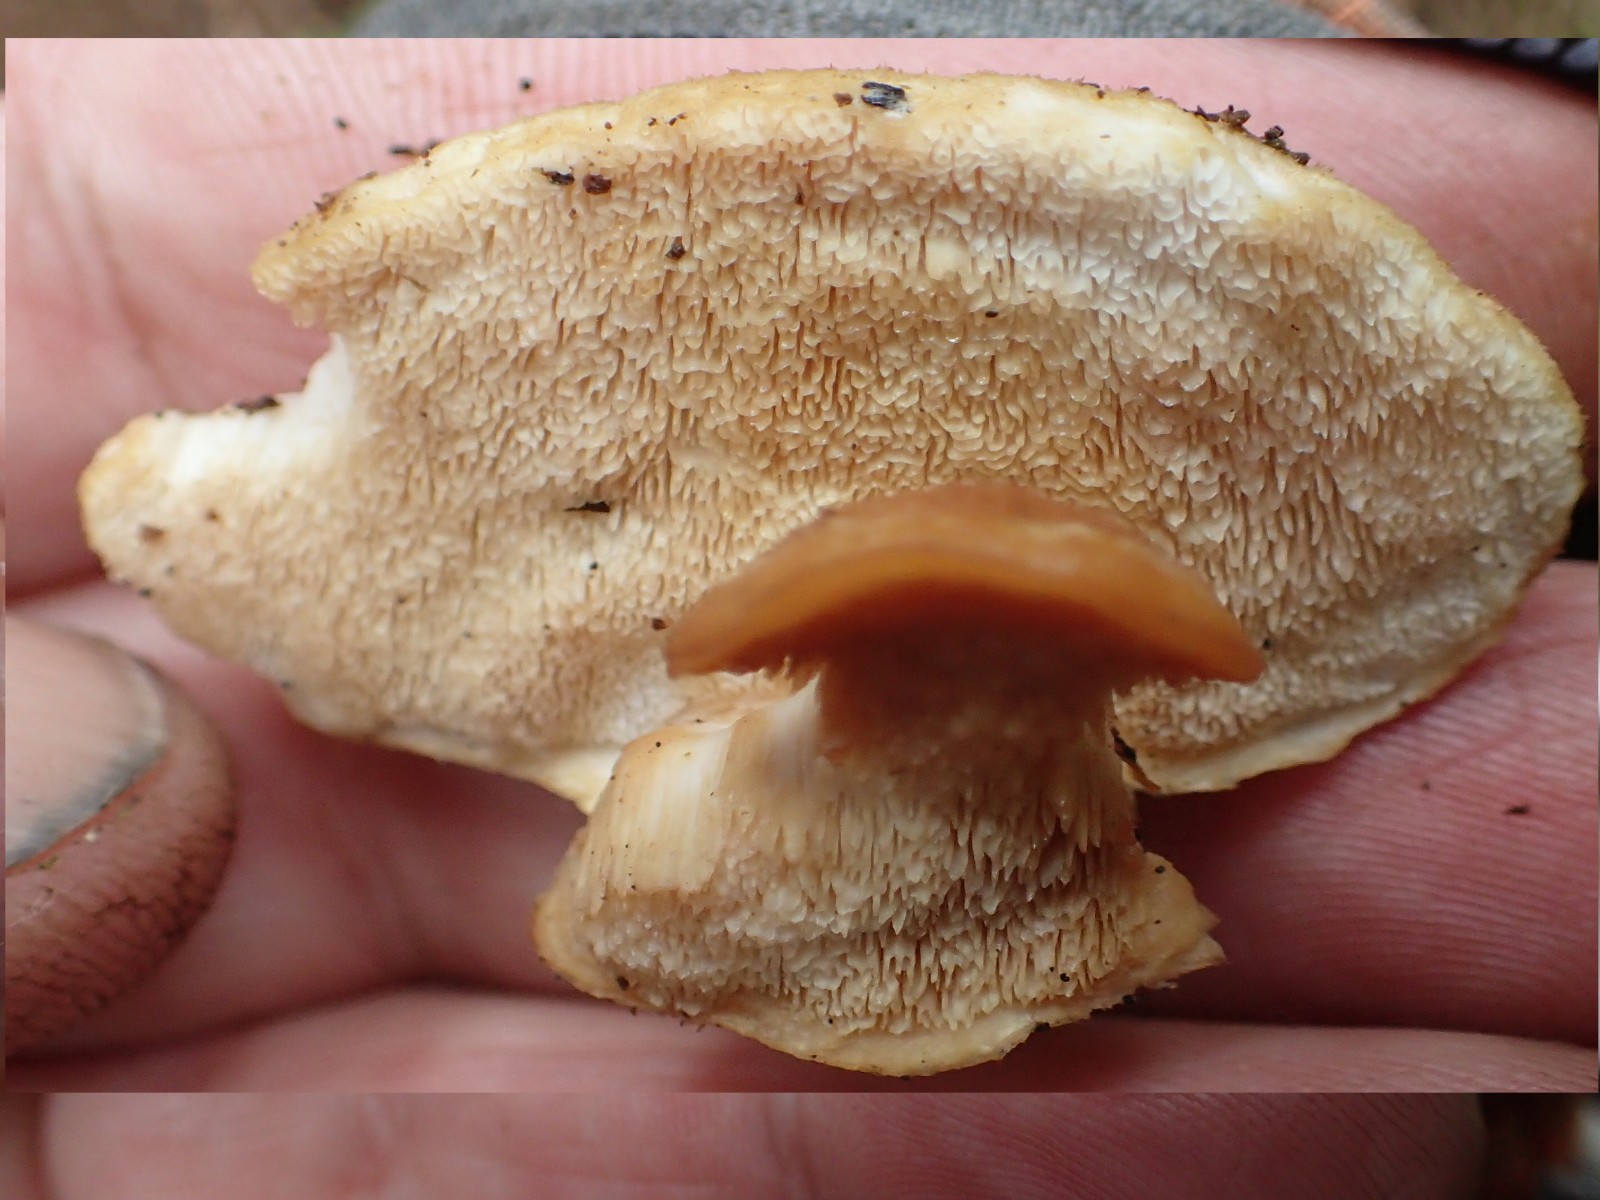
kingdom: Fungi
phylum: Basidiomycota
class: Agaricomycetes
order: Polyporales
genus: Fuscopostia
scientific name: Fuscopostia fragilis
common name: brunende kødporesvamp
